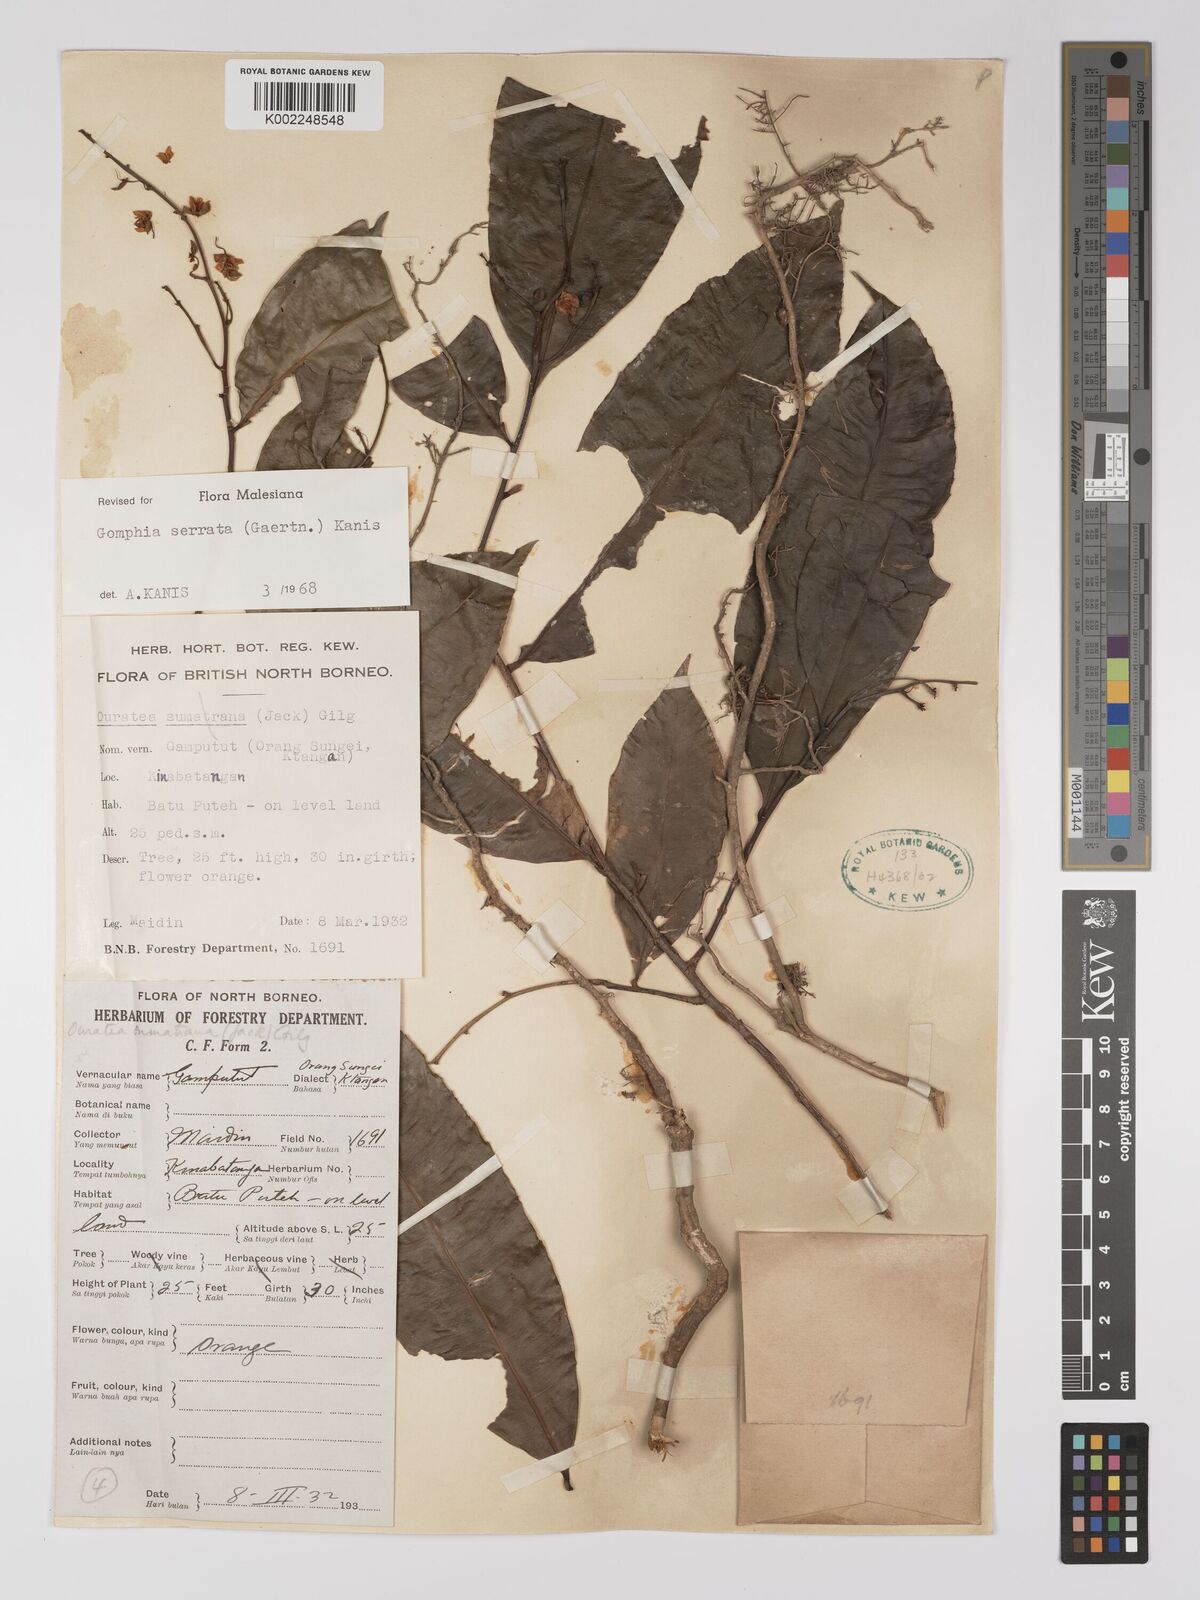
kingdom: Plantae
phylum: Tracheophyta
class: Magnoliopsida
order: Malpighiales
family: Ochnaceae
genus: Gomphia
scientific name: Gomphia serrata
